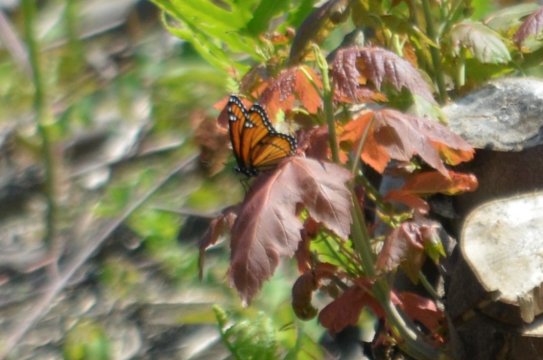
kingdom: Animalia
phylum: Arthropoda
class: Insecta
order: Lepidoptera
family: Nymphalidae
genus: Limenitis
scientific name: Limenitis archippus
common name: Viceroy
